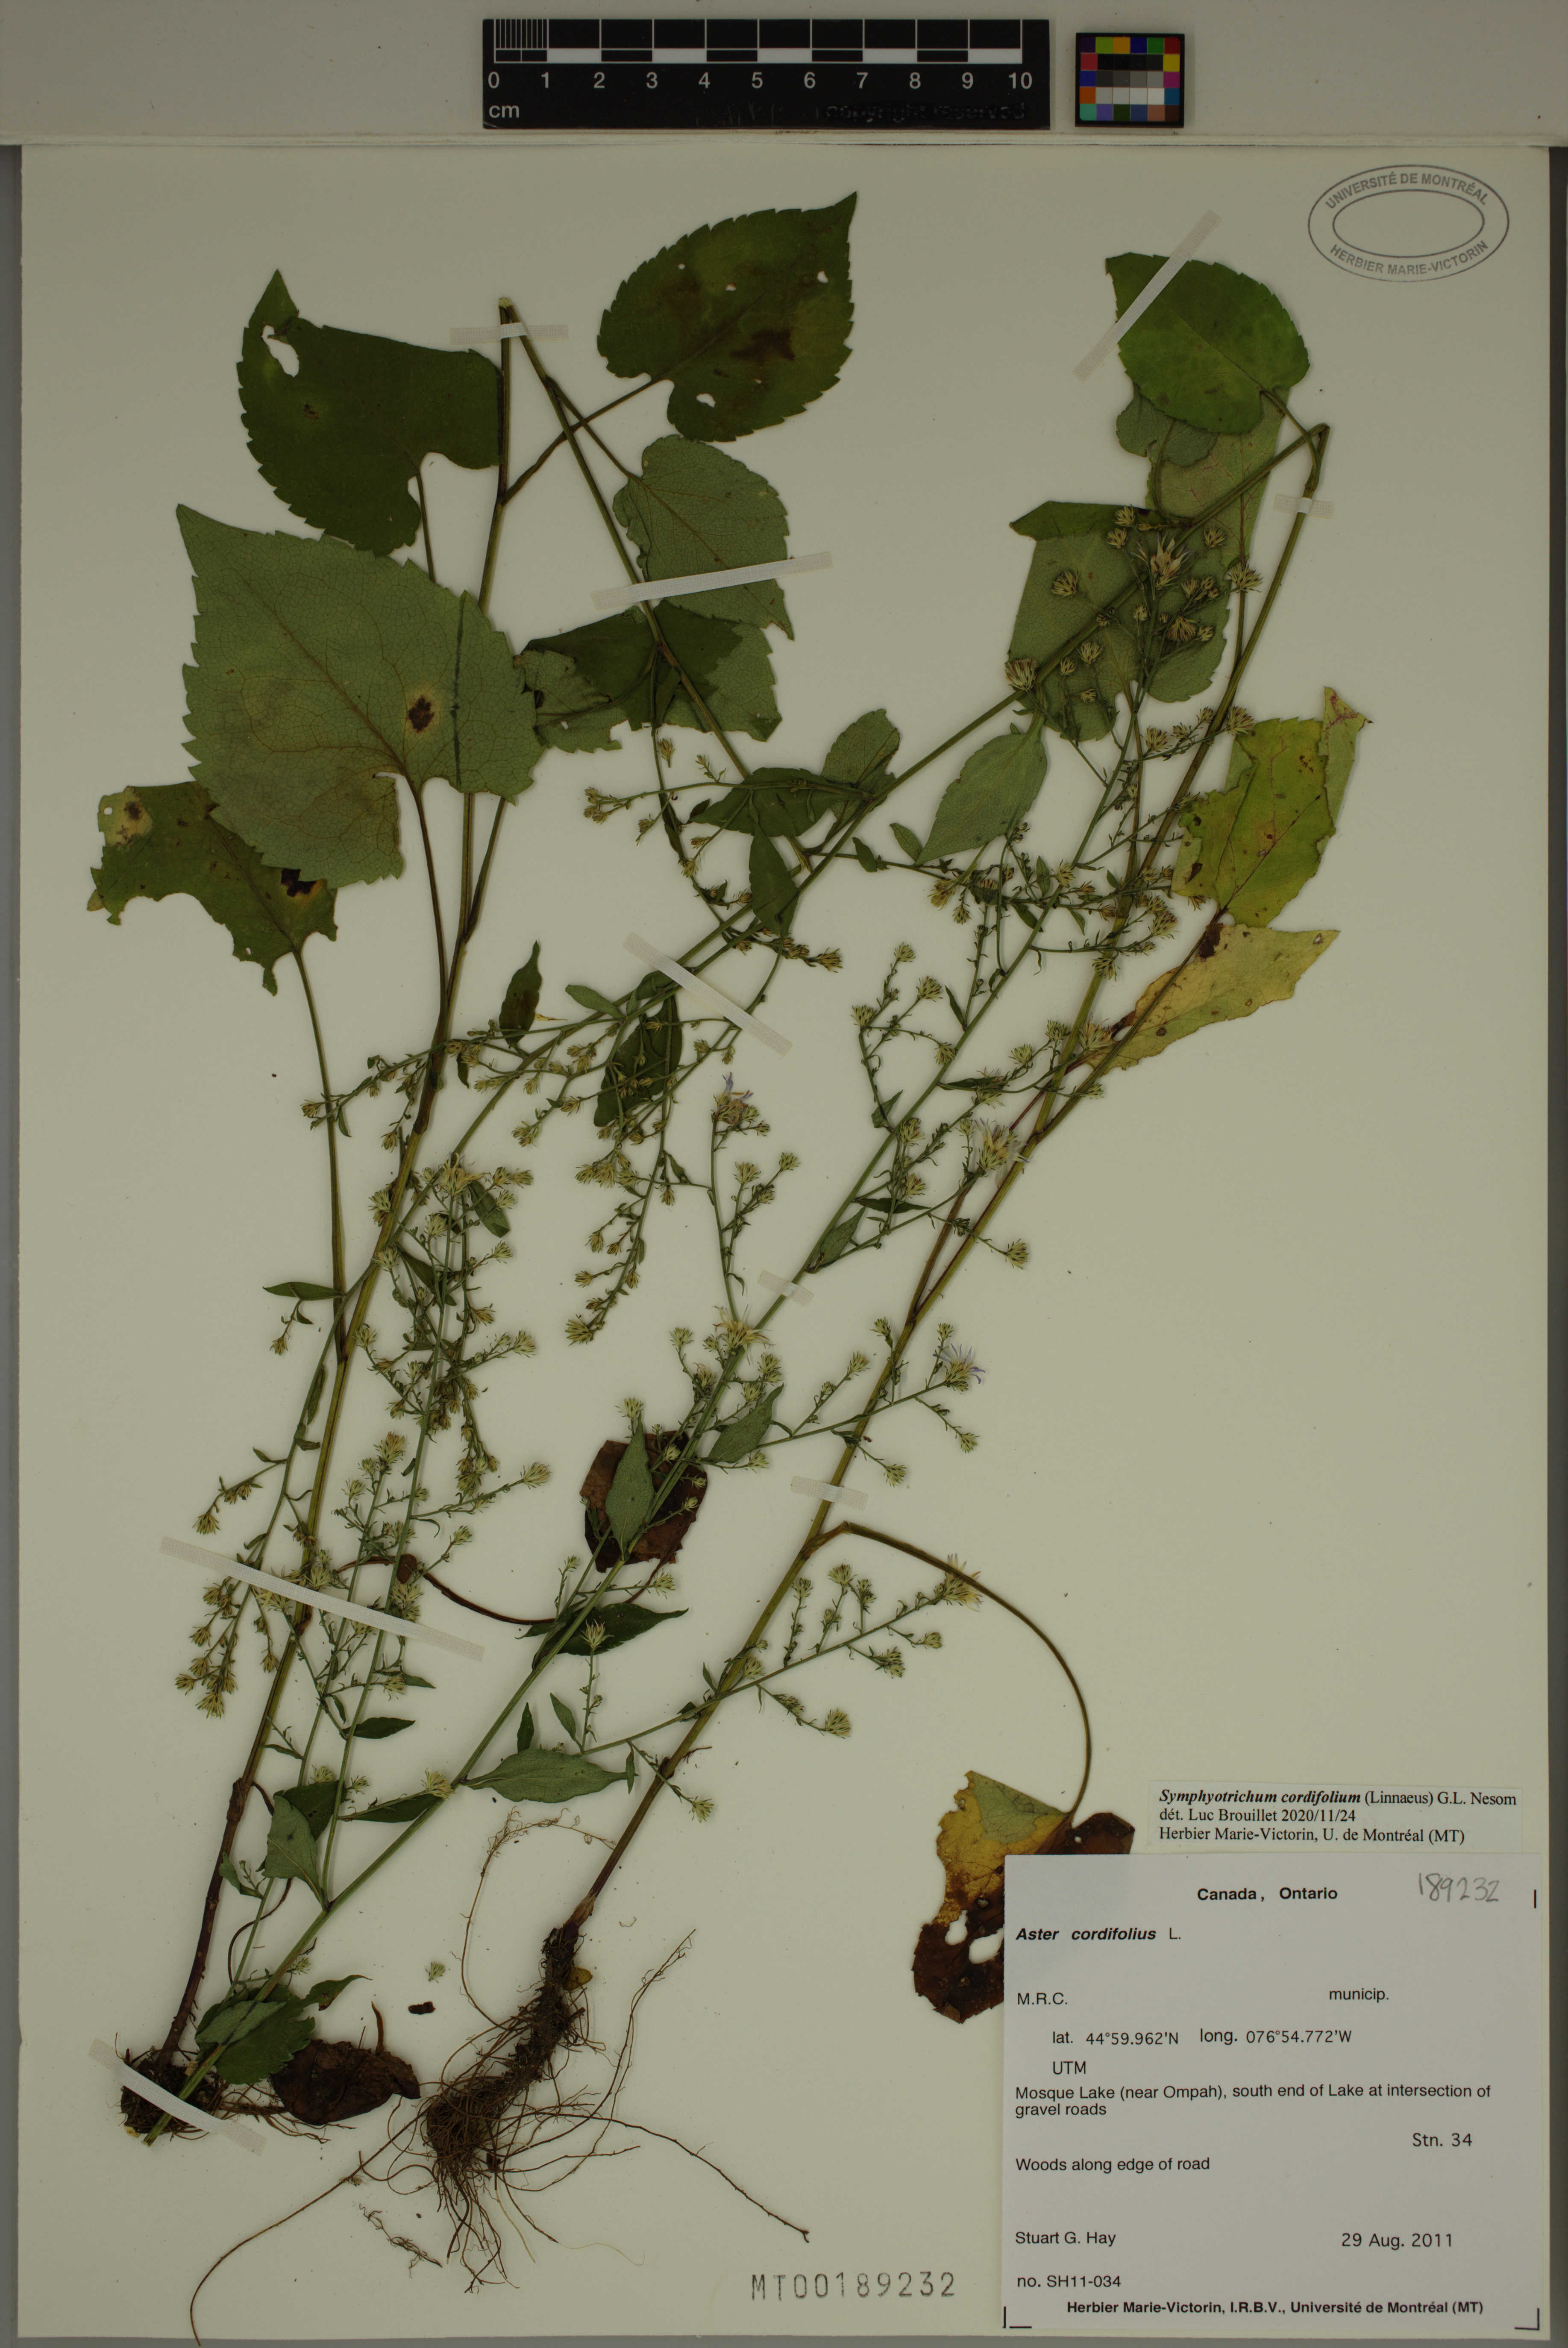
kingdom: Plantae
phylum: Tracheophyta
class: Magnoliopsida
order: Asterales
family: Asteraceae
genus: Symphyotrichum
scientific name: Symphyotrichum cordifolium
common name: Beeweed
